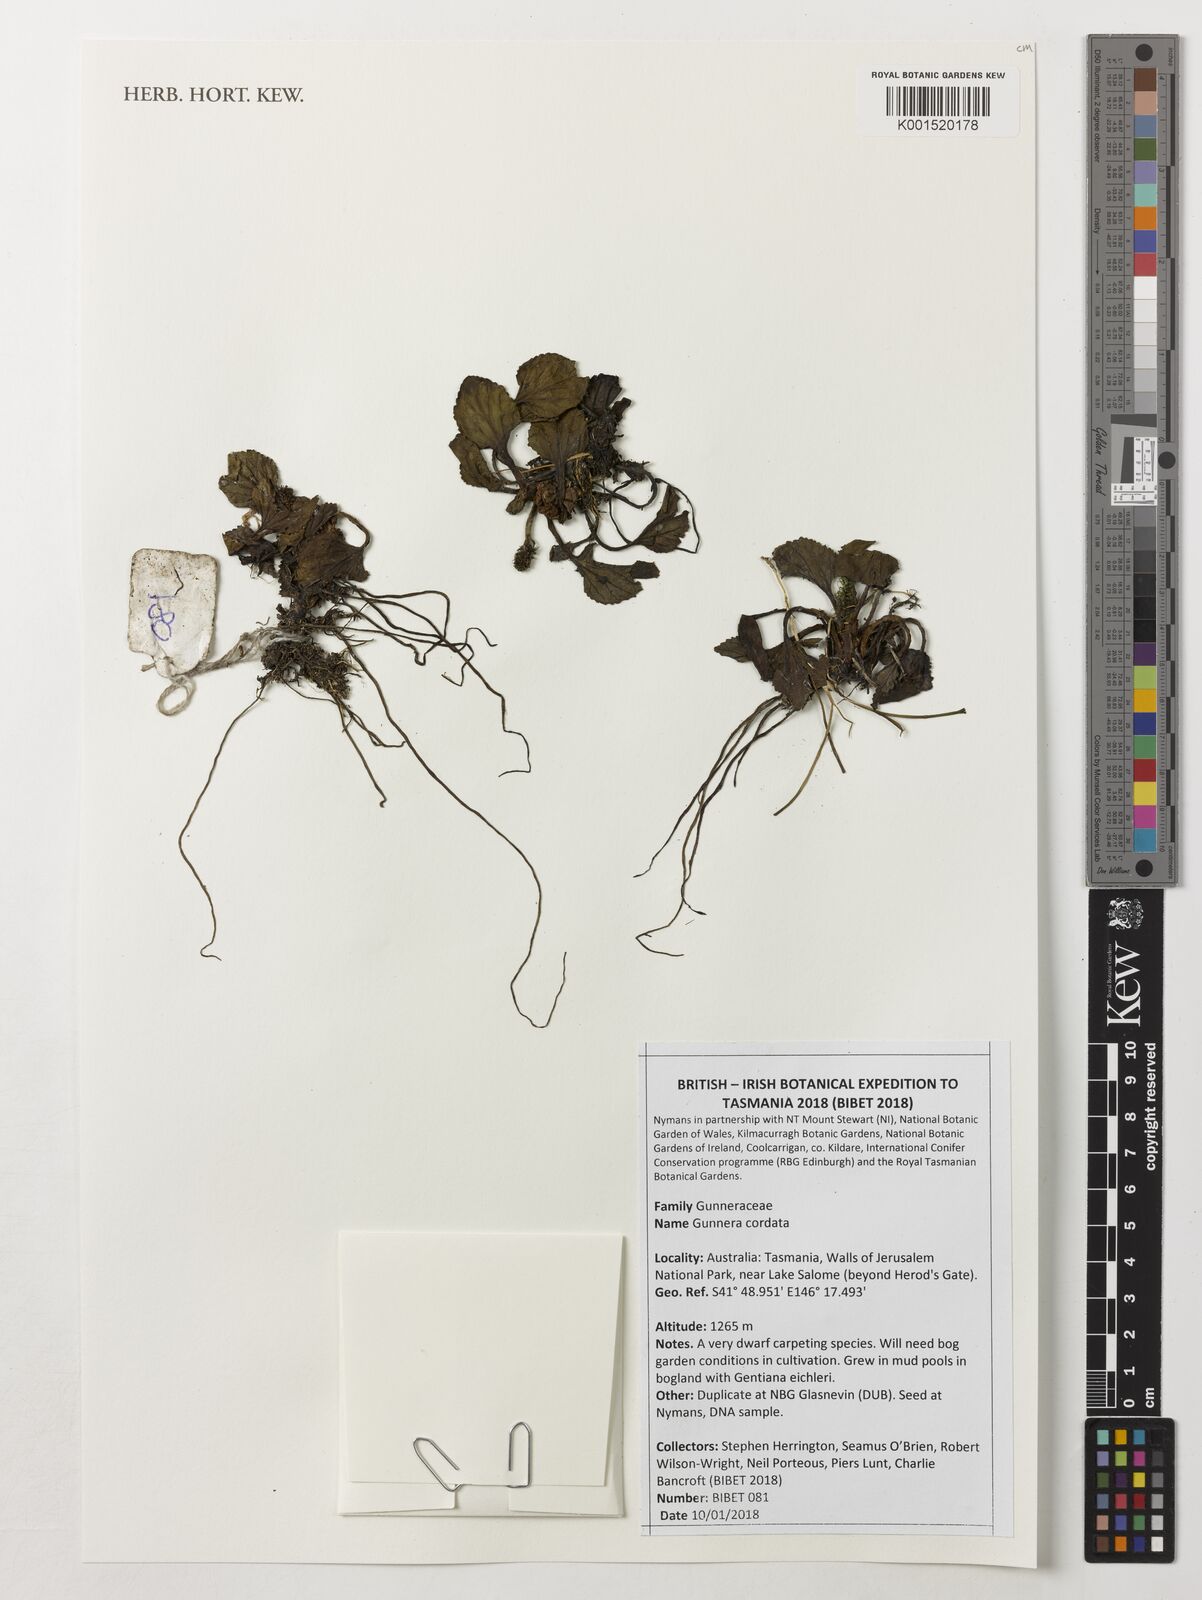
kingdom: Plantae
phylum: Tracheophyta
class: Magnoliopsida
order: Gunnerales
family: Gunneraceae
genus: Gunnera
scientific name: Gunnera
